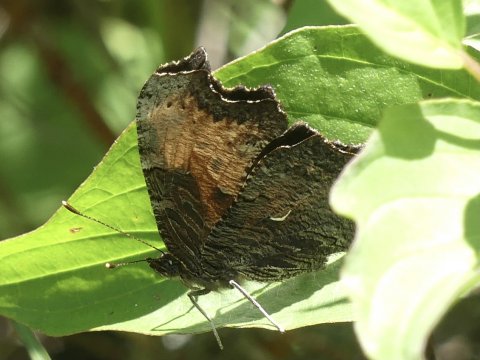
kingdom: Animalia
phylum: Arthropoda
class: Insecta
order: Lepidoptera
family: Nymphalidae
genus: Polygonia
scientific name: Polygonia progne
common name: Gray Comma
